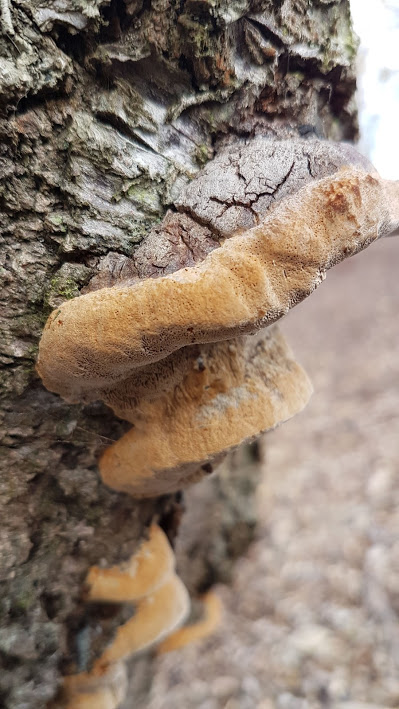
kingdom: Fungi
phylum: Basidiomycota
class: Agaricomycetes
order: Hymenochaetales
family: Hymenochaetaceae
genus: Phellinus
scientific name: Phellinus pomaceus
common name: blomme-ildporesvamp
